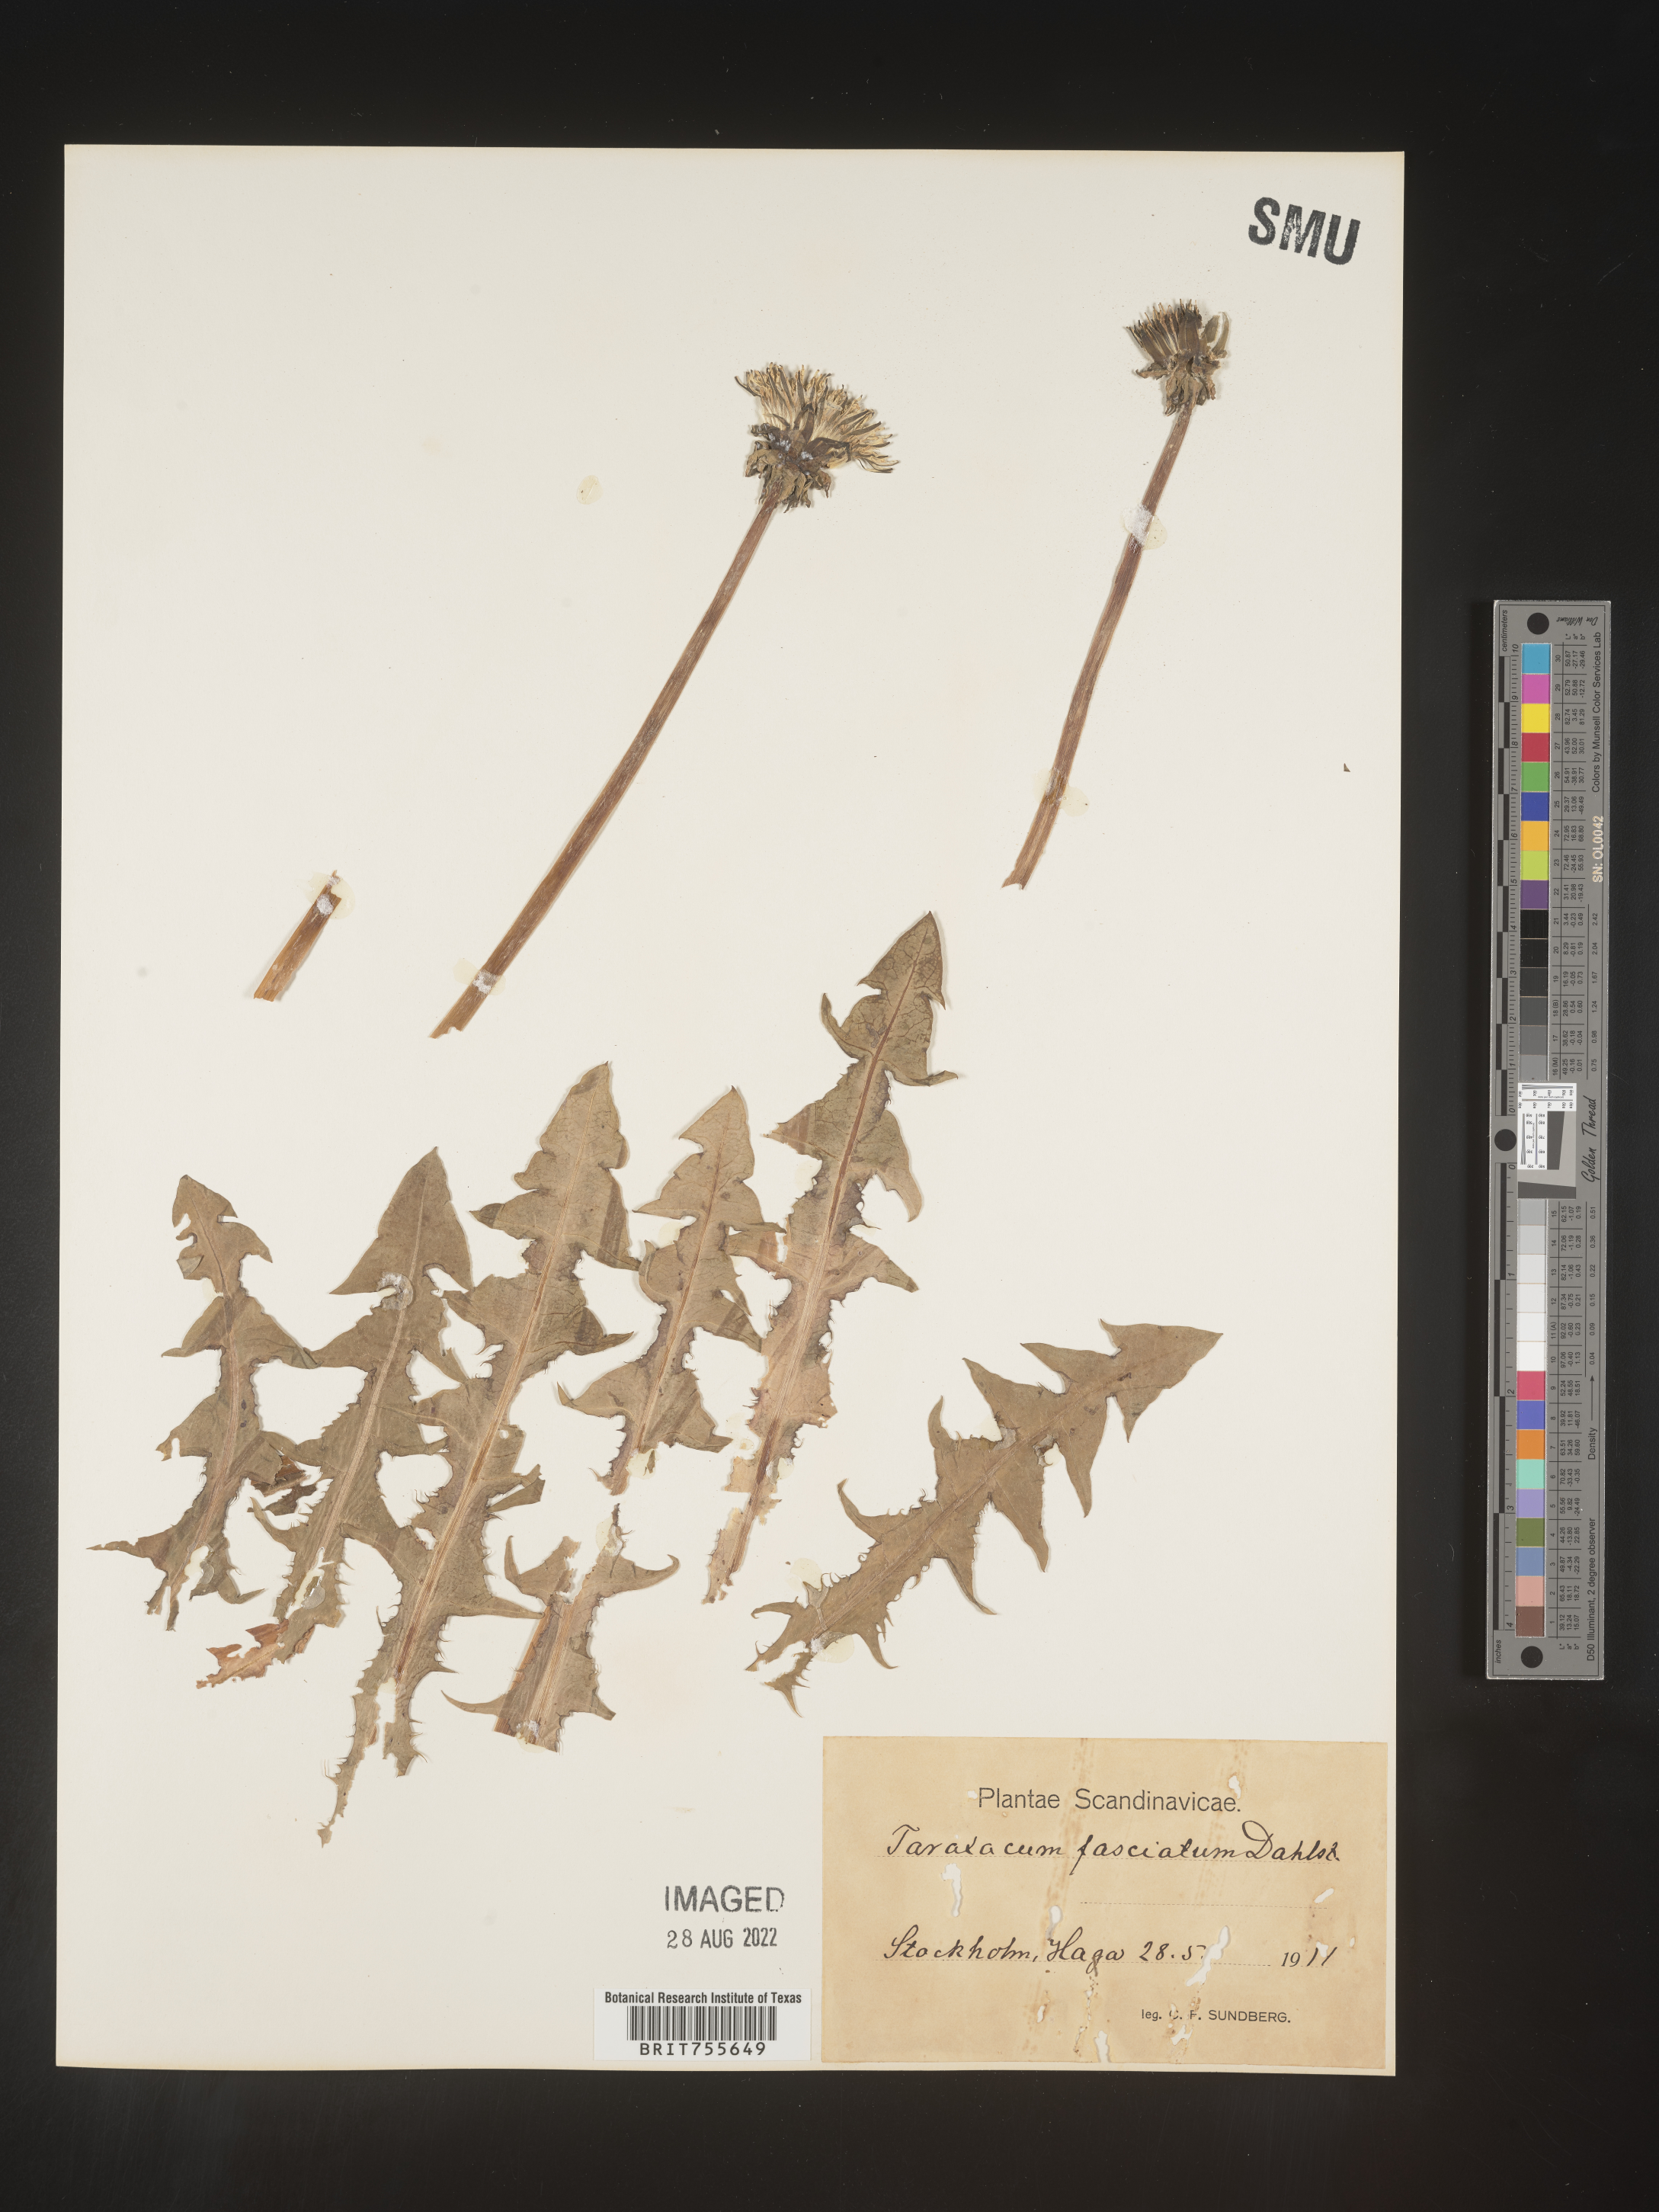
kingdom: Plantae
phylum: Tracheophyta
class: Magnoliopsida
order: Asterales
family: Asteraceae
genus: Taraxacum
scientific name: Taraxacum
